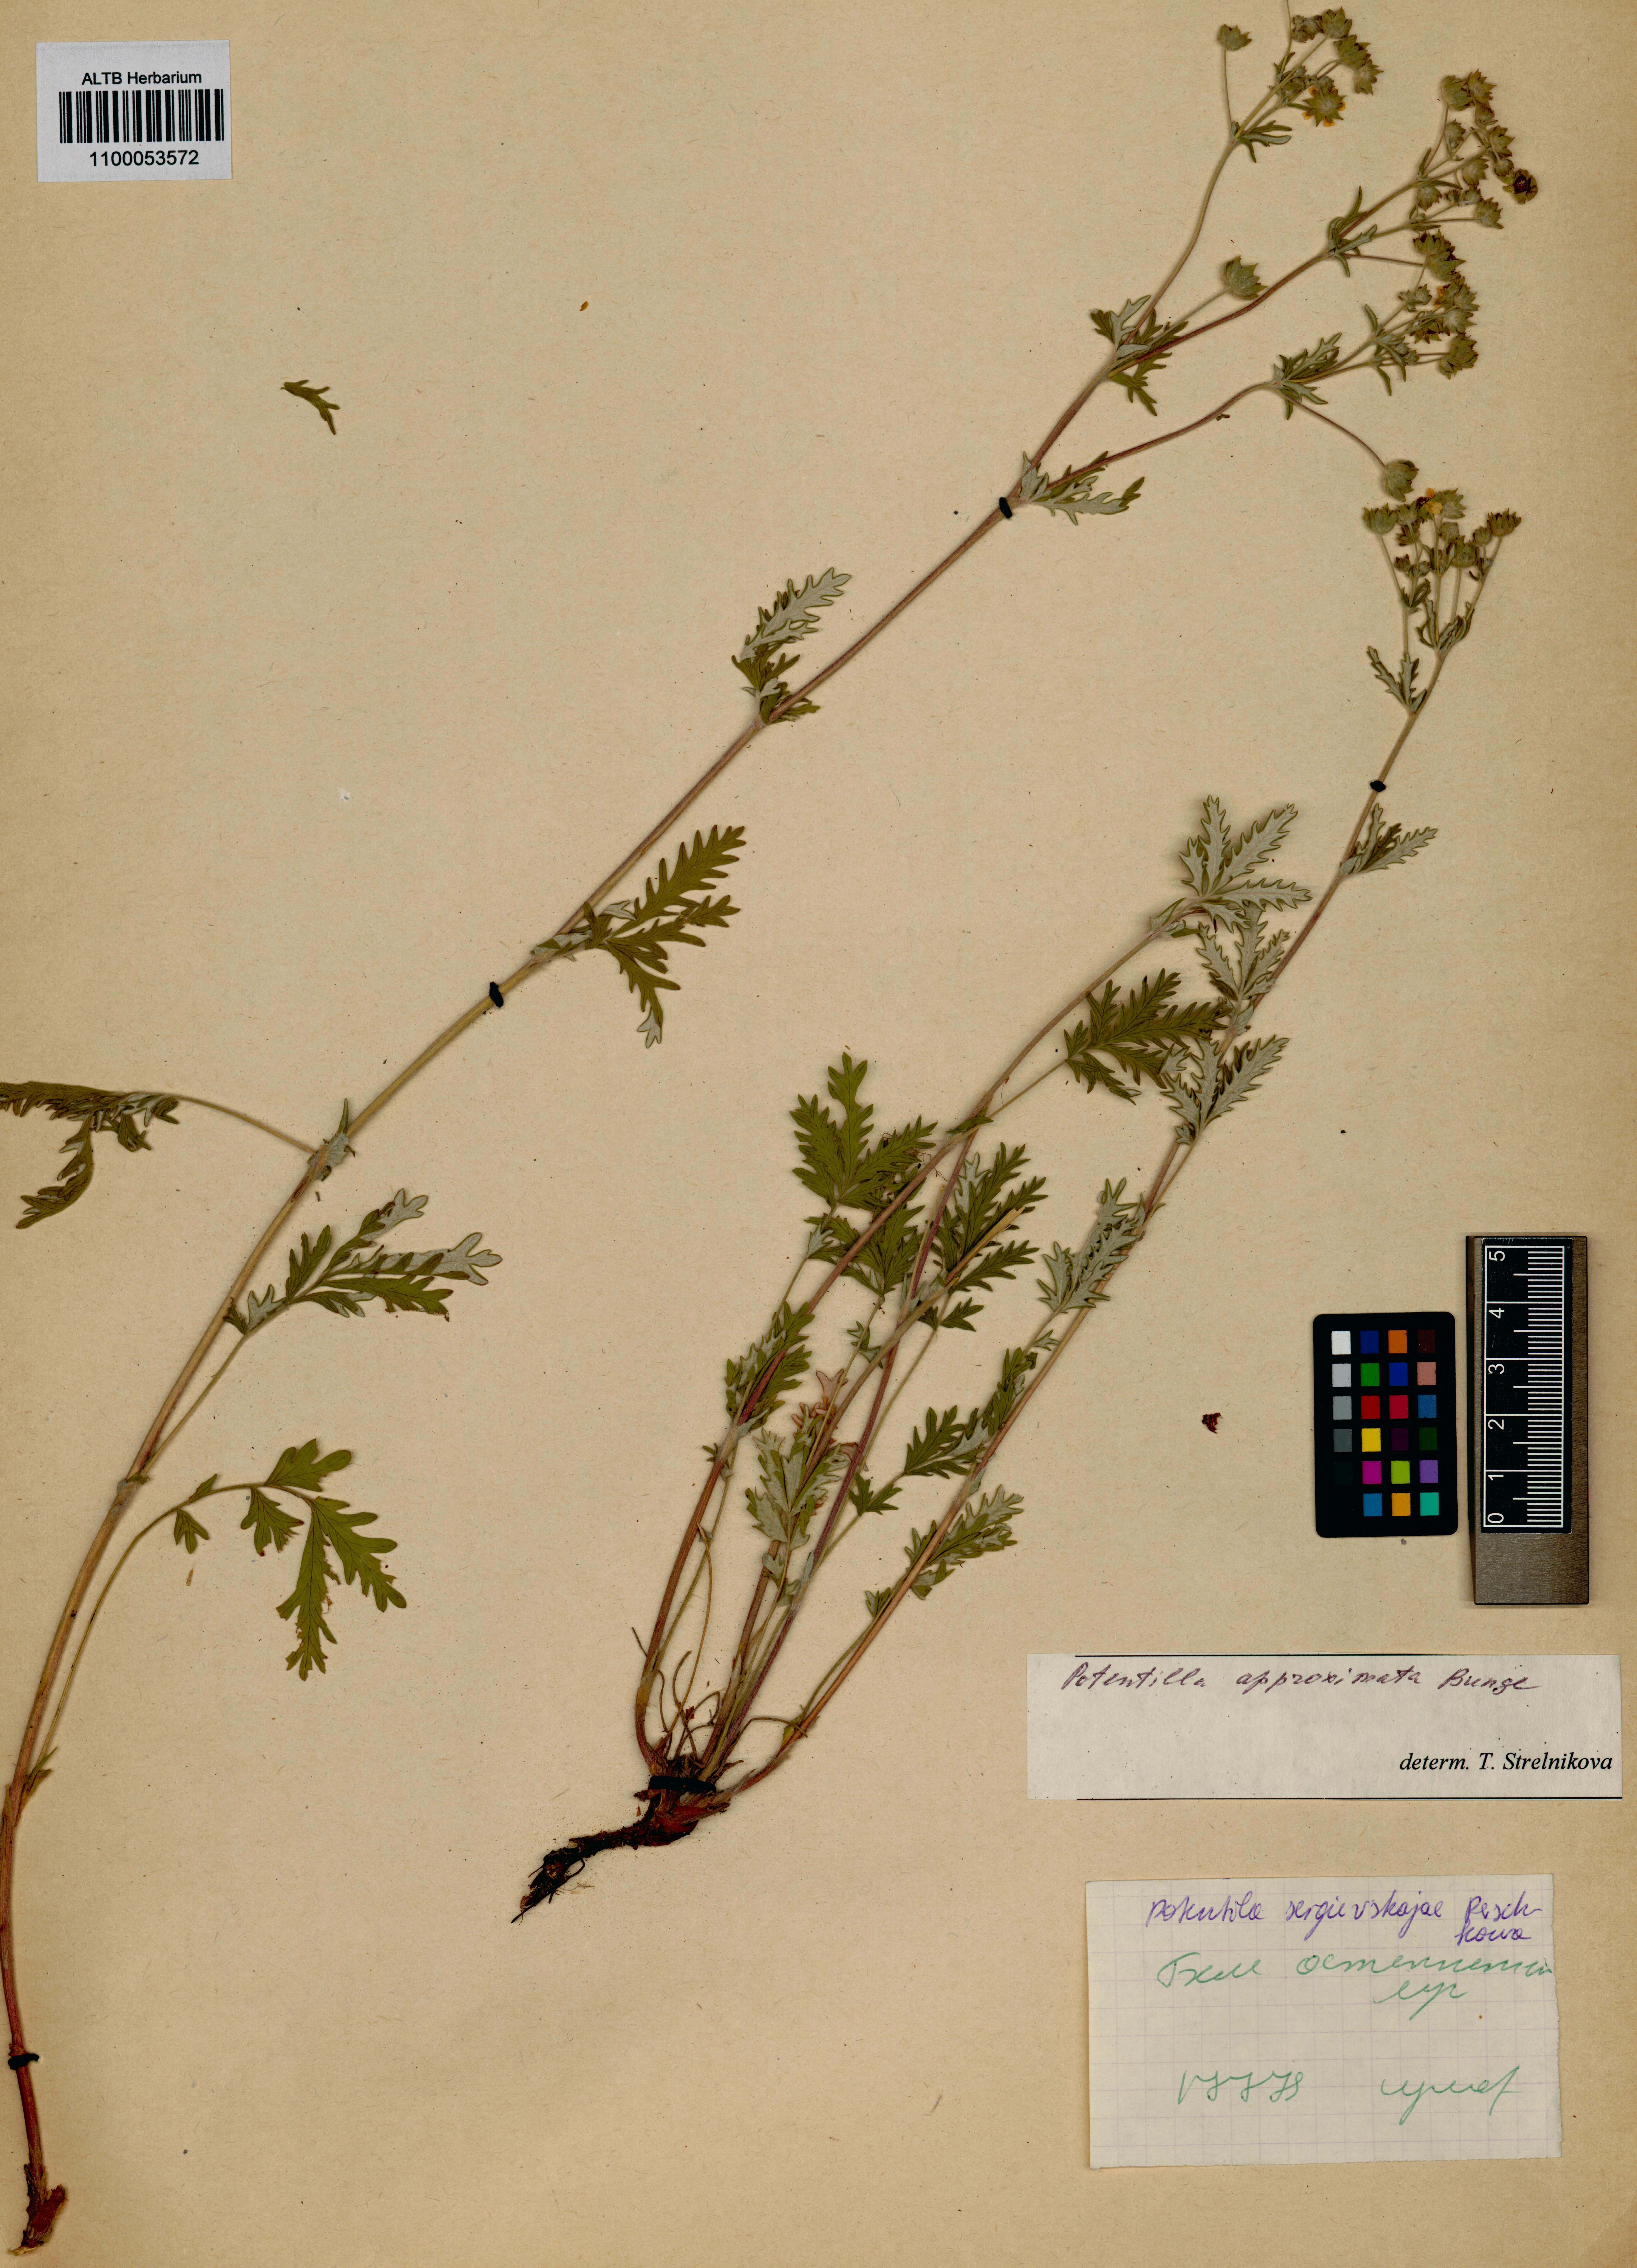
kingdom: Plantae
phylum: Tracheophyta
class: Magnoliopsida
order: Rosales
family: Rosaceae
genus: Potentilla
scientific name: Potentilla conferta
